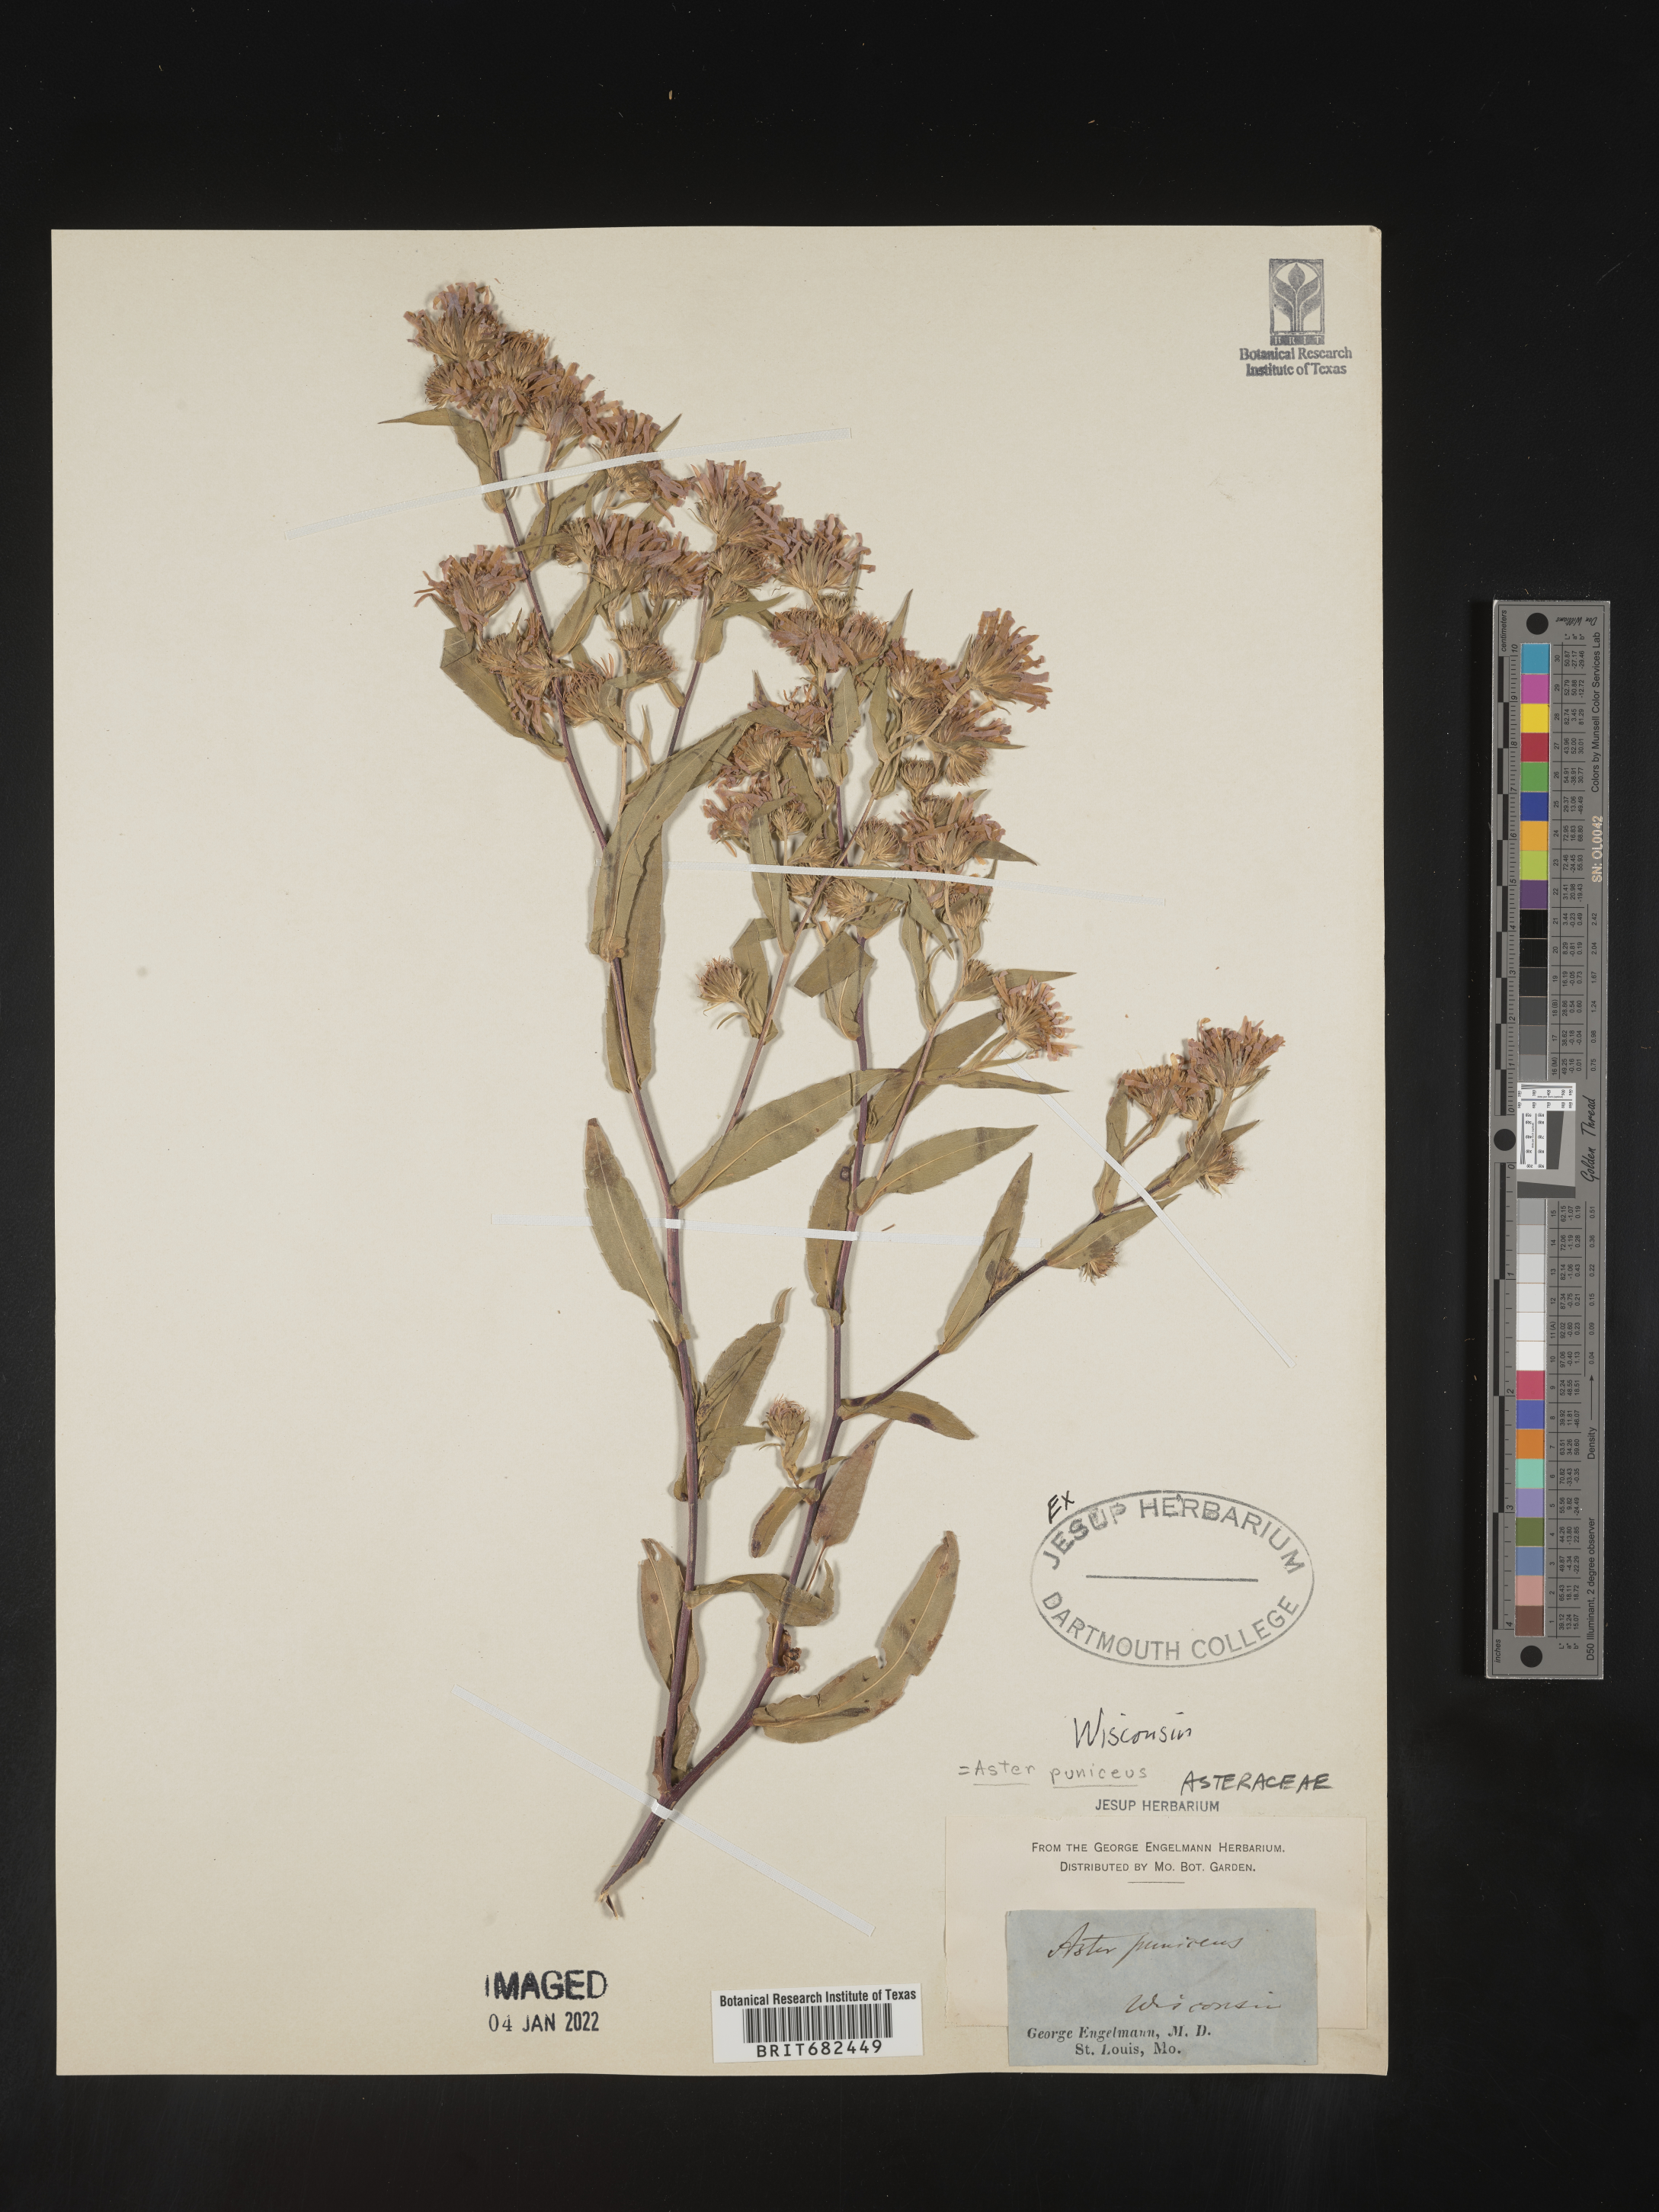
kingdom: Plantae
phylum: Tracheophyta
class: Magnoliopsida
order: Asterales
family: Asteraceae
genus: Aster
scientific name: Aster
